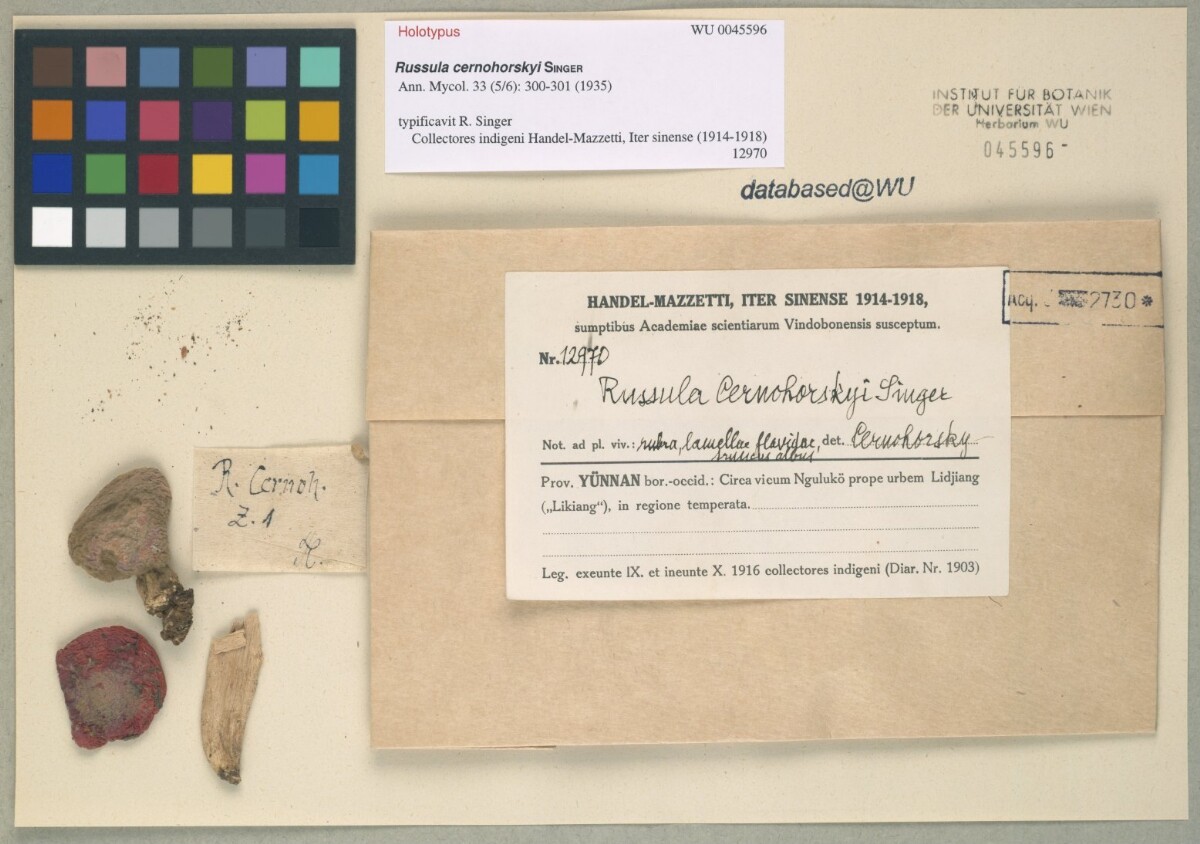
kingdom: Fungi
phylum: Basidiomycota
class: Agaricomycetes
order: Russulales
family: Russulaceae
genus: Russula
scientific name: Russula cernohorskyi
